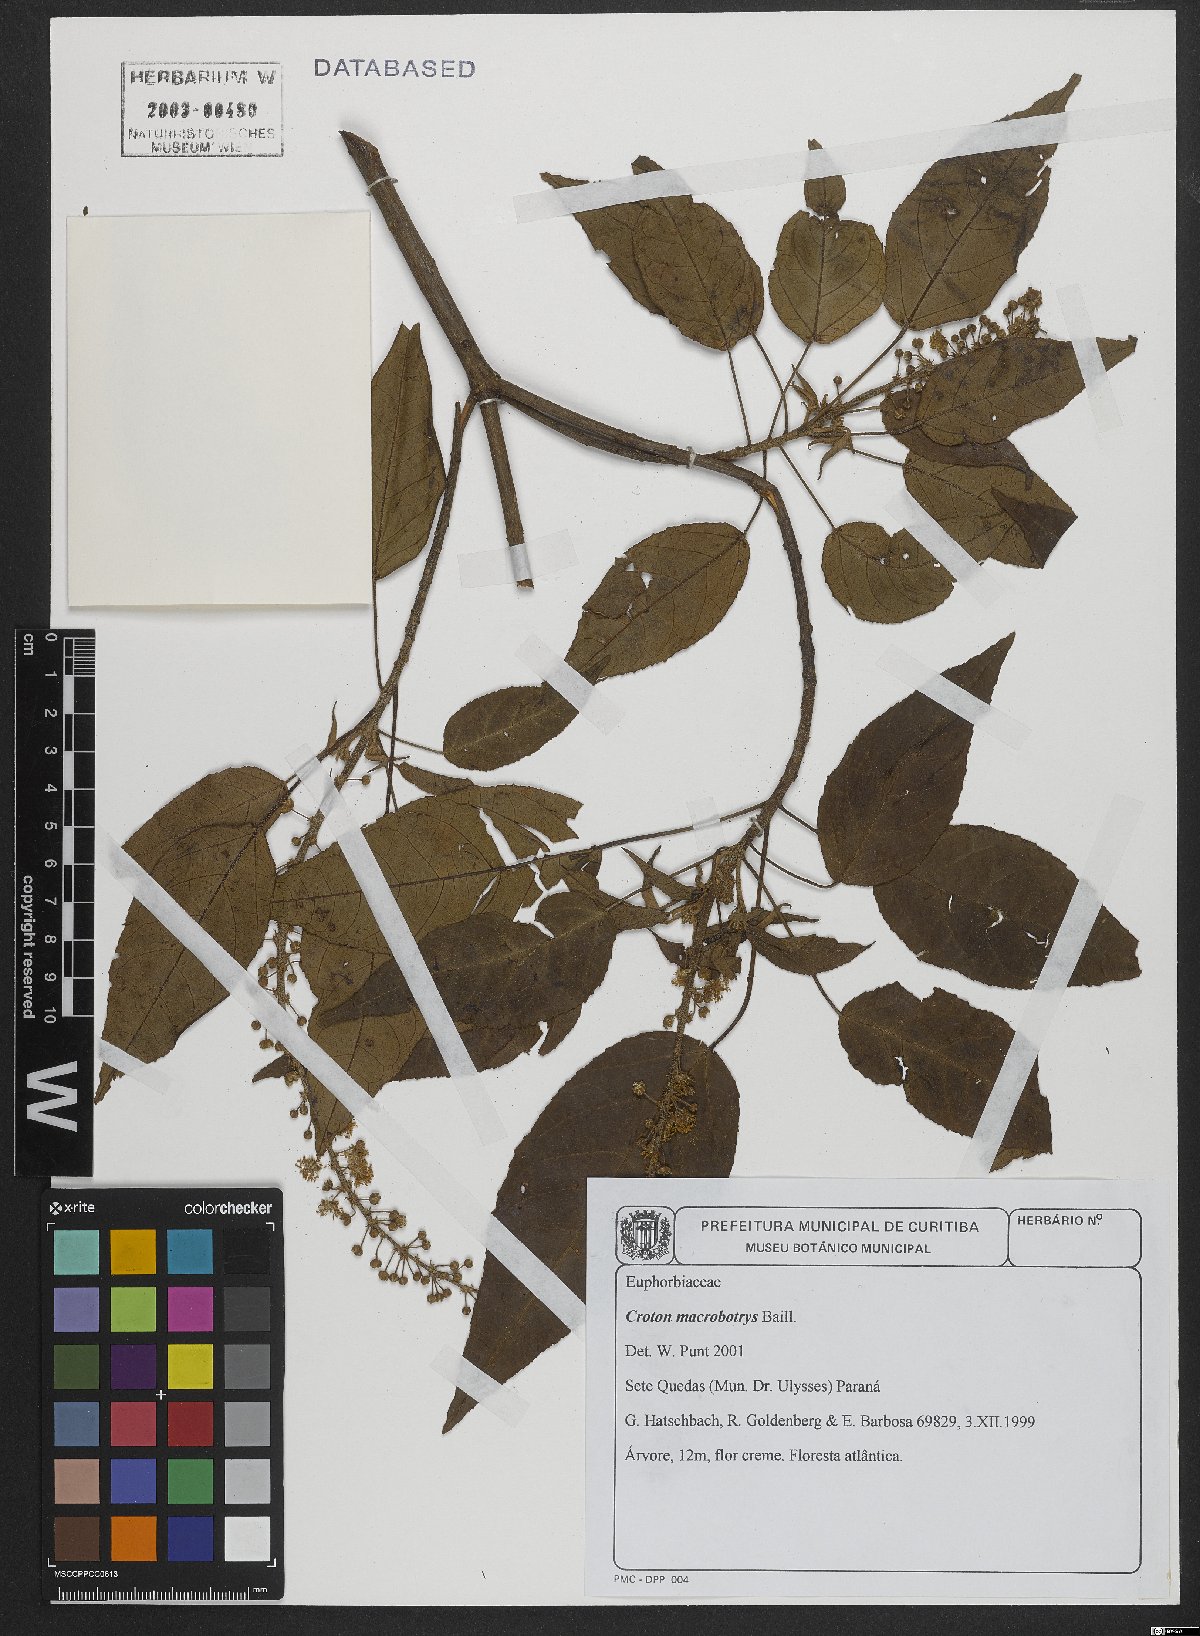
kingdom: Plantae
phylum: Tracheophyta
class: Magnoliopsida
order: Malpighiales
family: Euphorbiaceae
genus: Croton
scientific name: Croton macrobothrys
